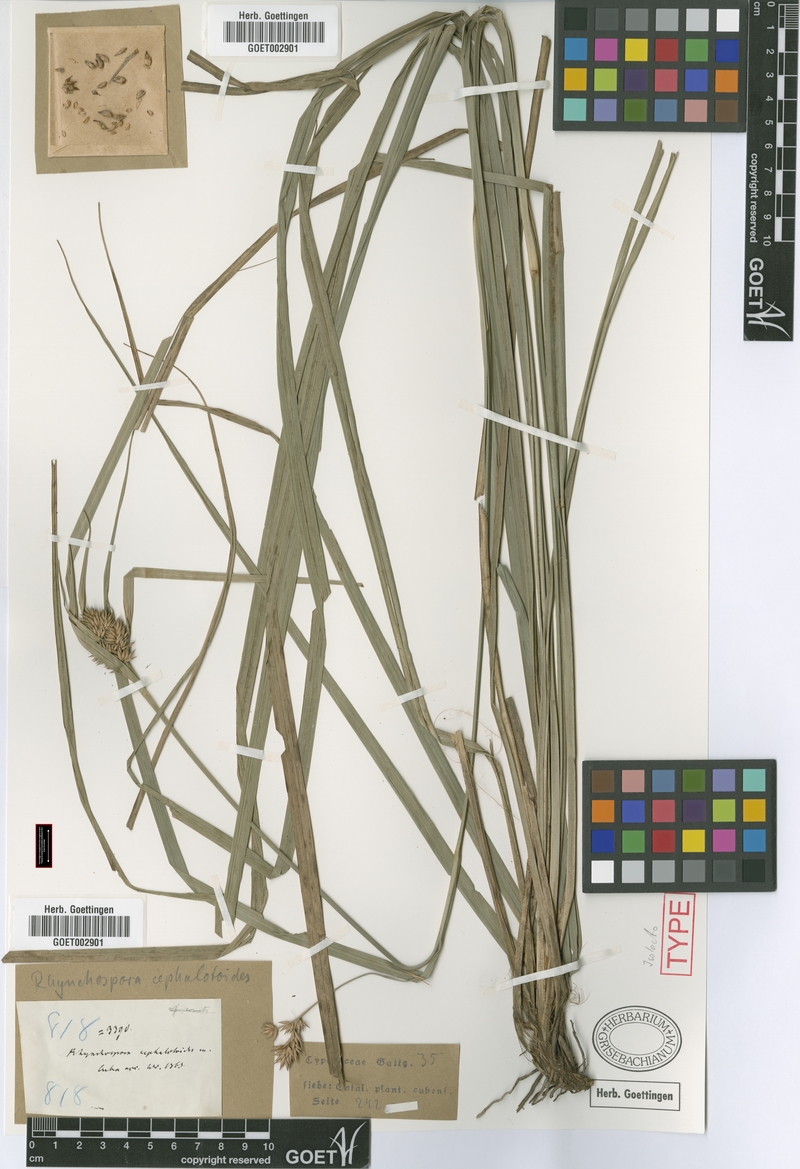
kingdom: Plantae
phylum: Tracheophyta
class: Liliopsida
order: Poales
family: Cyperaceae
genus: Rhynchospora
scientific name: Rhynchospora cephalotoides
